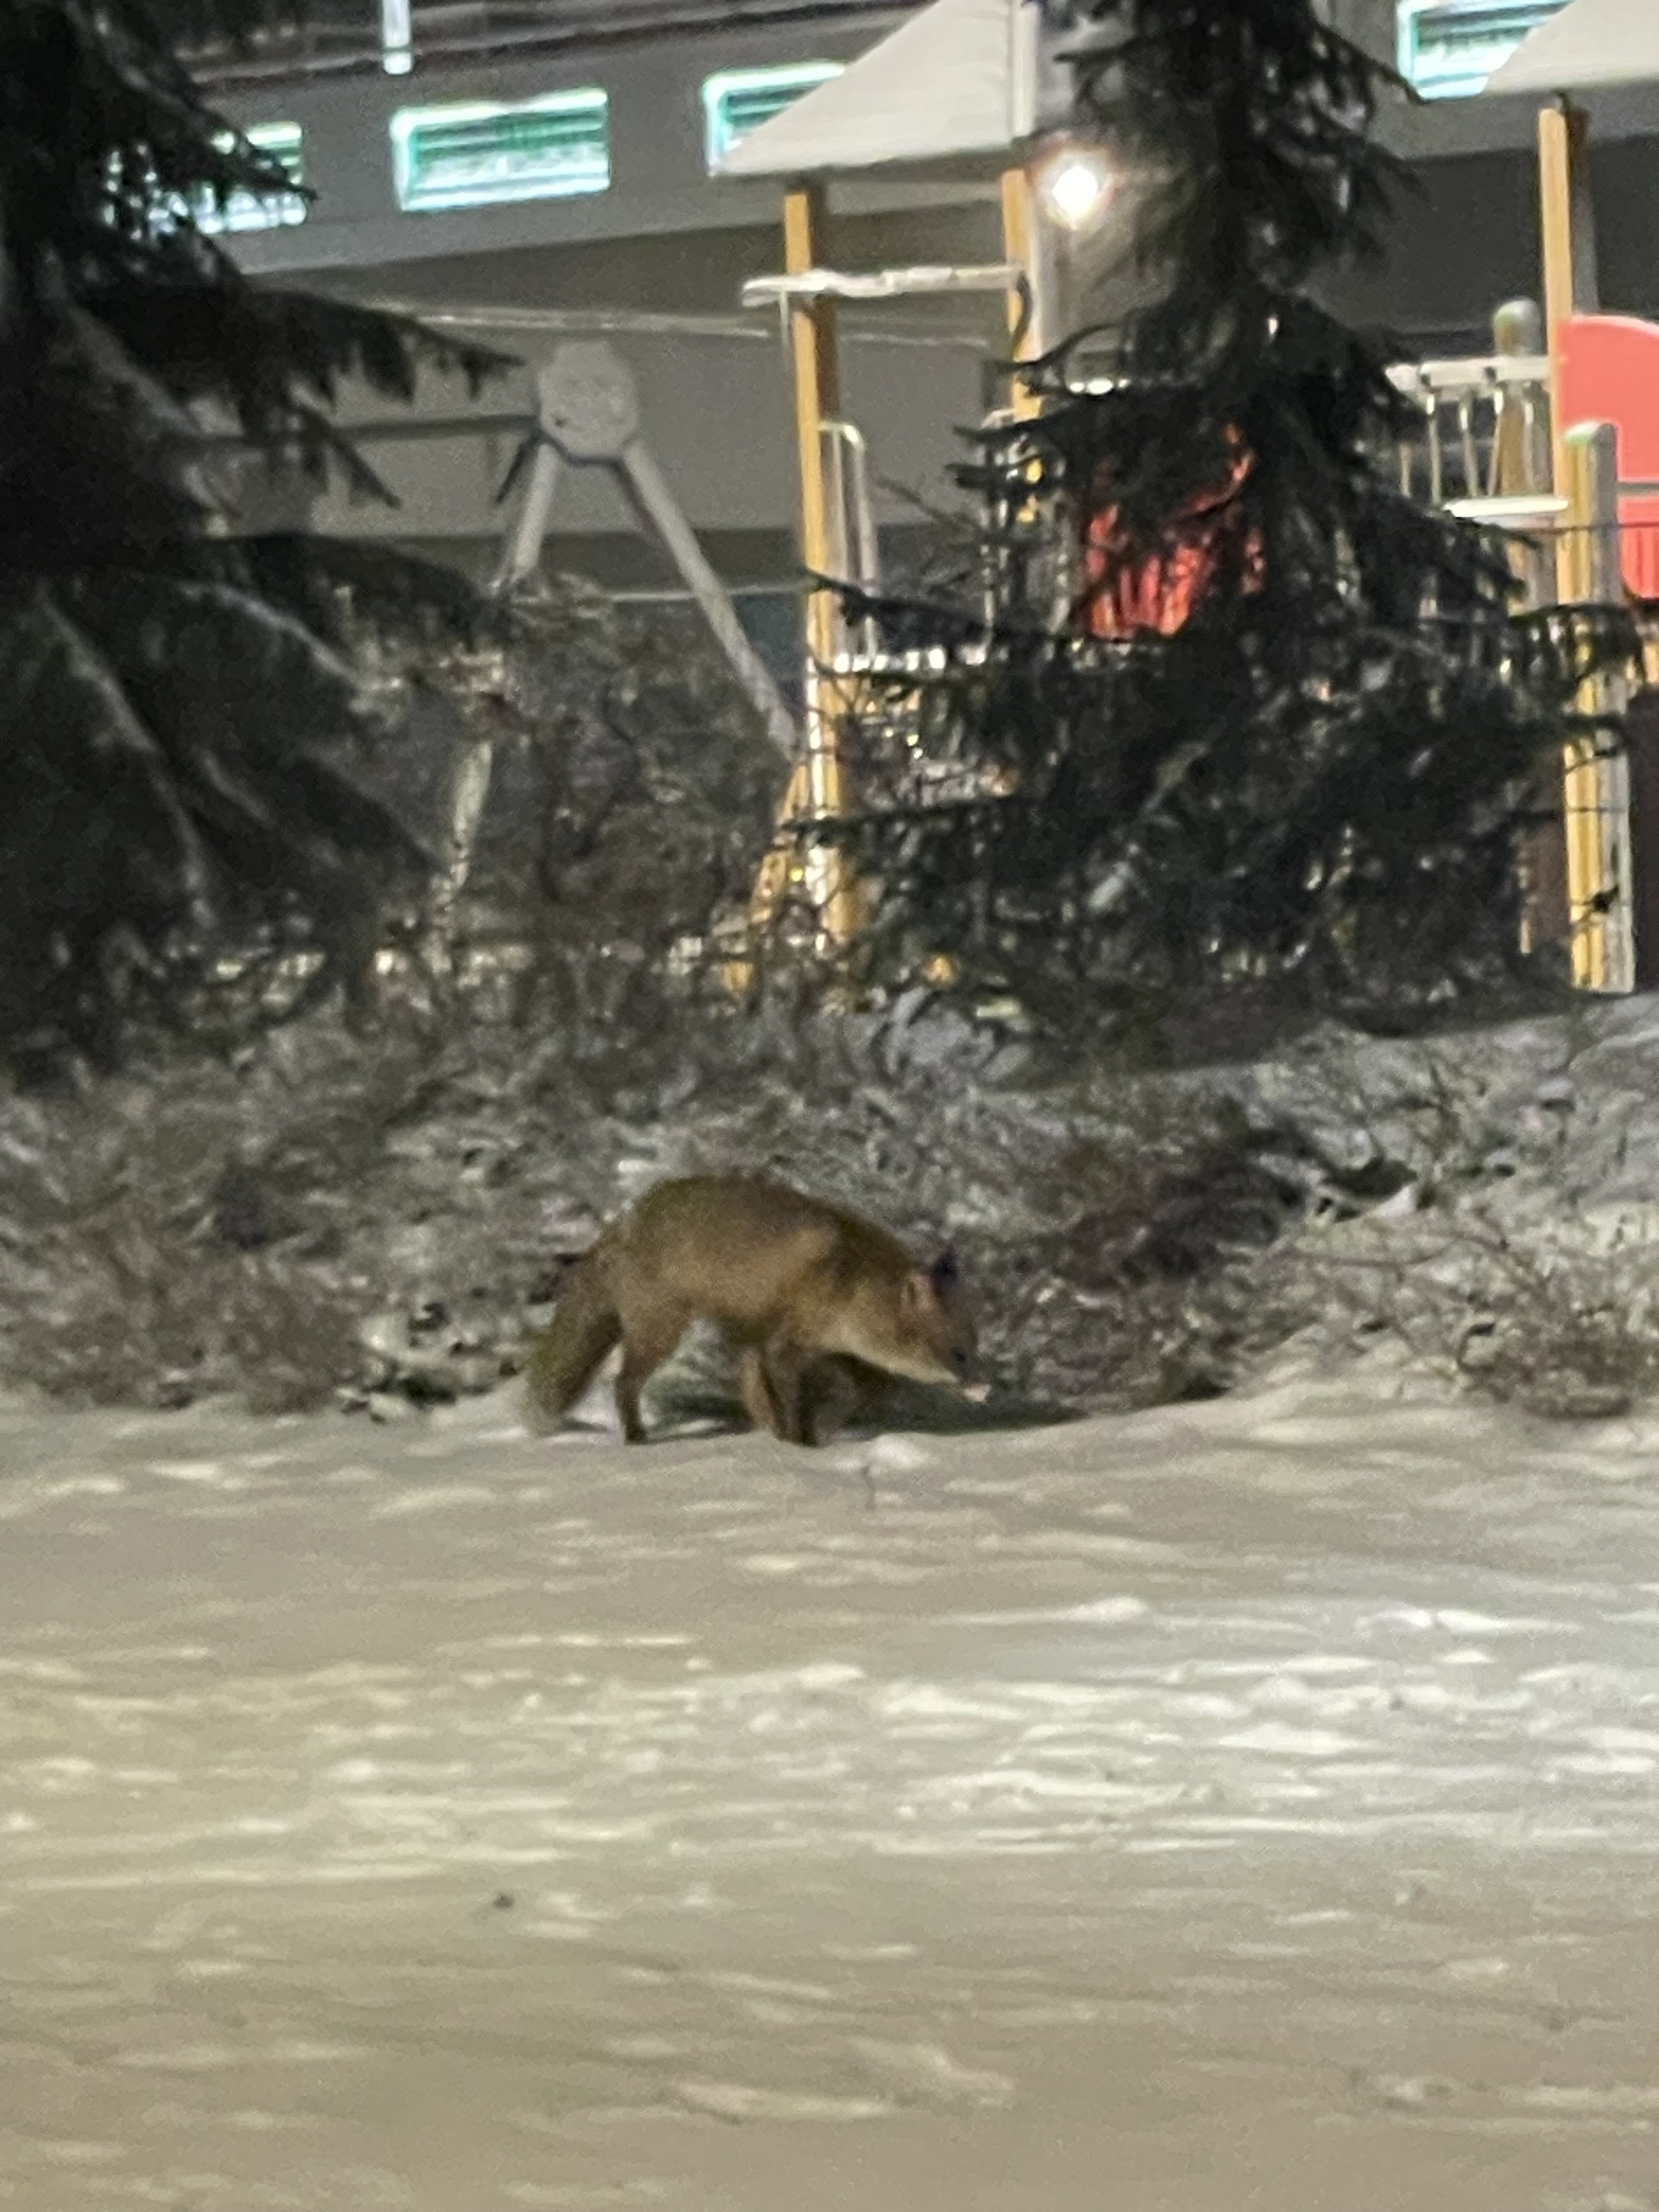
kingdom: Animalia
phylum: Chordata
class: Mammalia
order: Carnivora
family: Canidae
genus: Vulpes
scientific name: Vulpes vulpes
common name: Red fox
